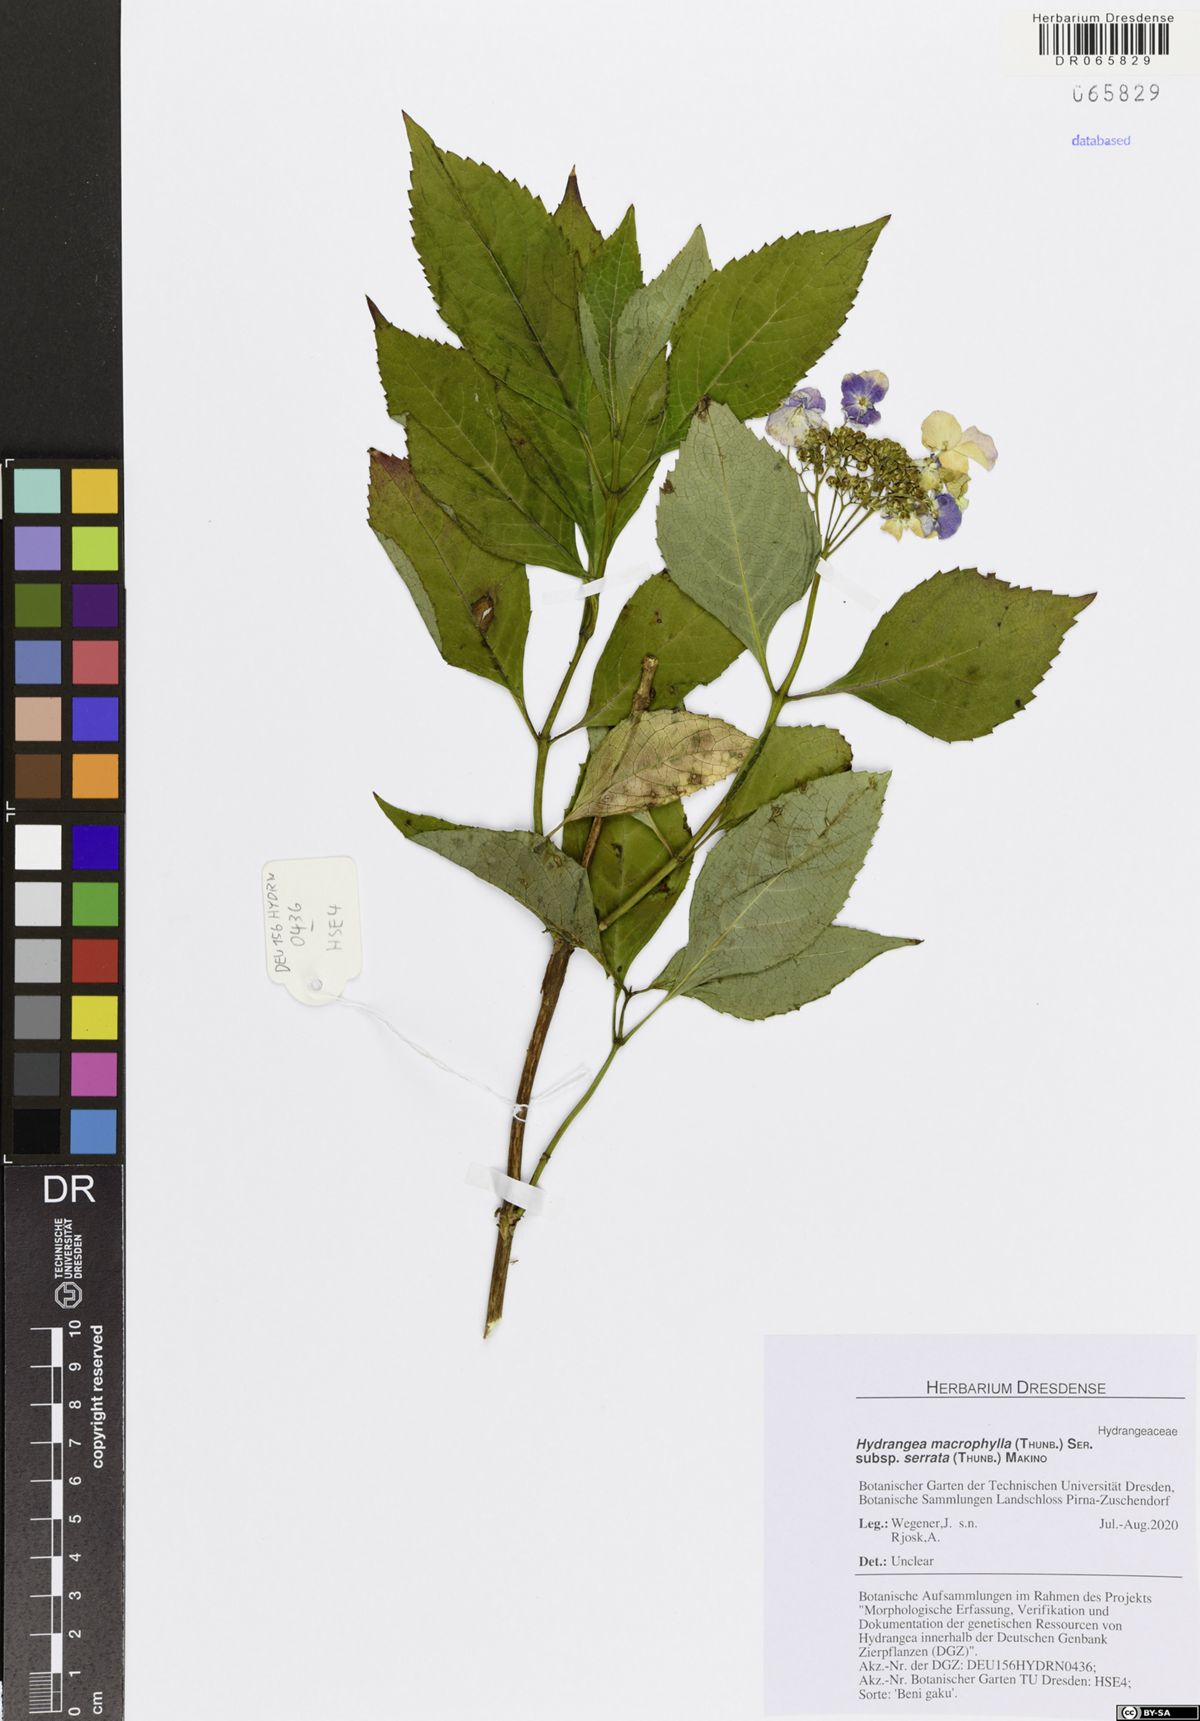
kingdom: Plantae
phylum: Tracheophyta
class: Magnoliopsida
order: Cornales
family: Hydrangeaceae
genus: Hydrangea
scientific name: Hydrangea serrata
